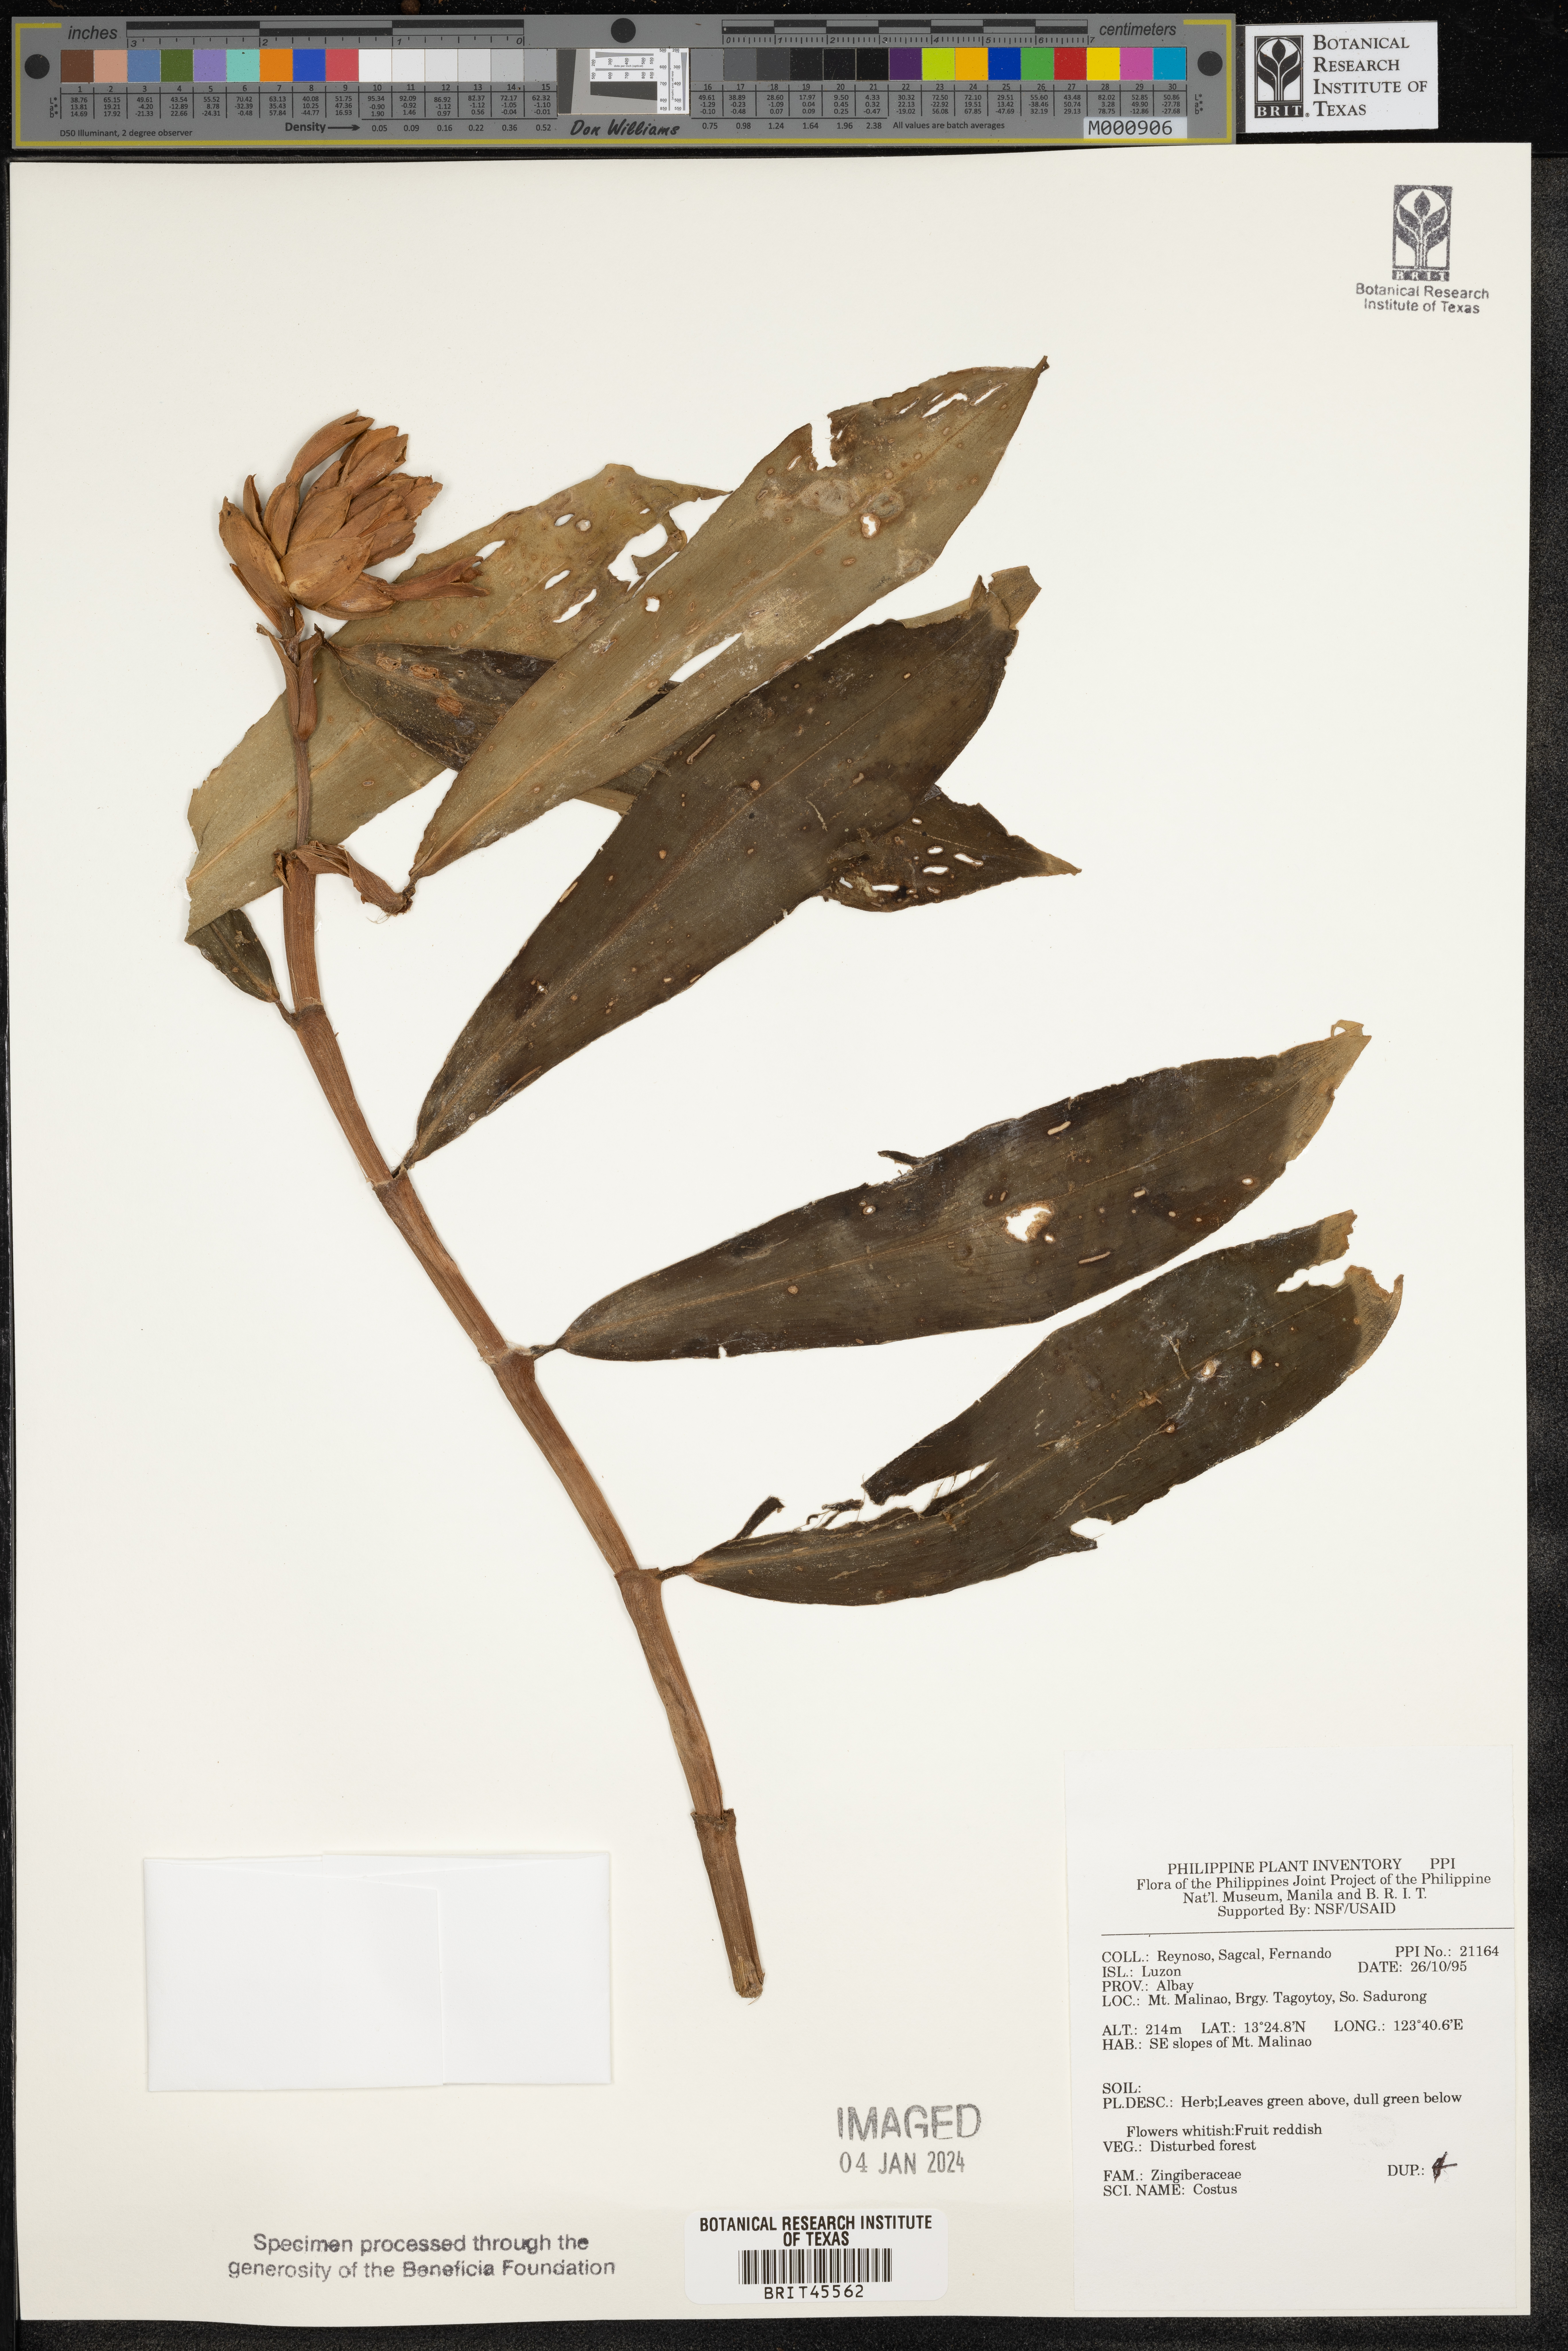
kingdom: Plantae
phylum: Tracheophyta
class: Liliopsida
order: Zingiberales
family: Costaceae
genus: Costus
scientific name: Costus
